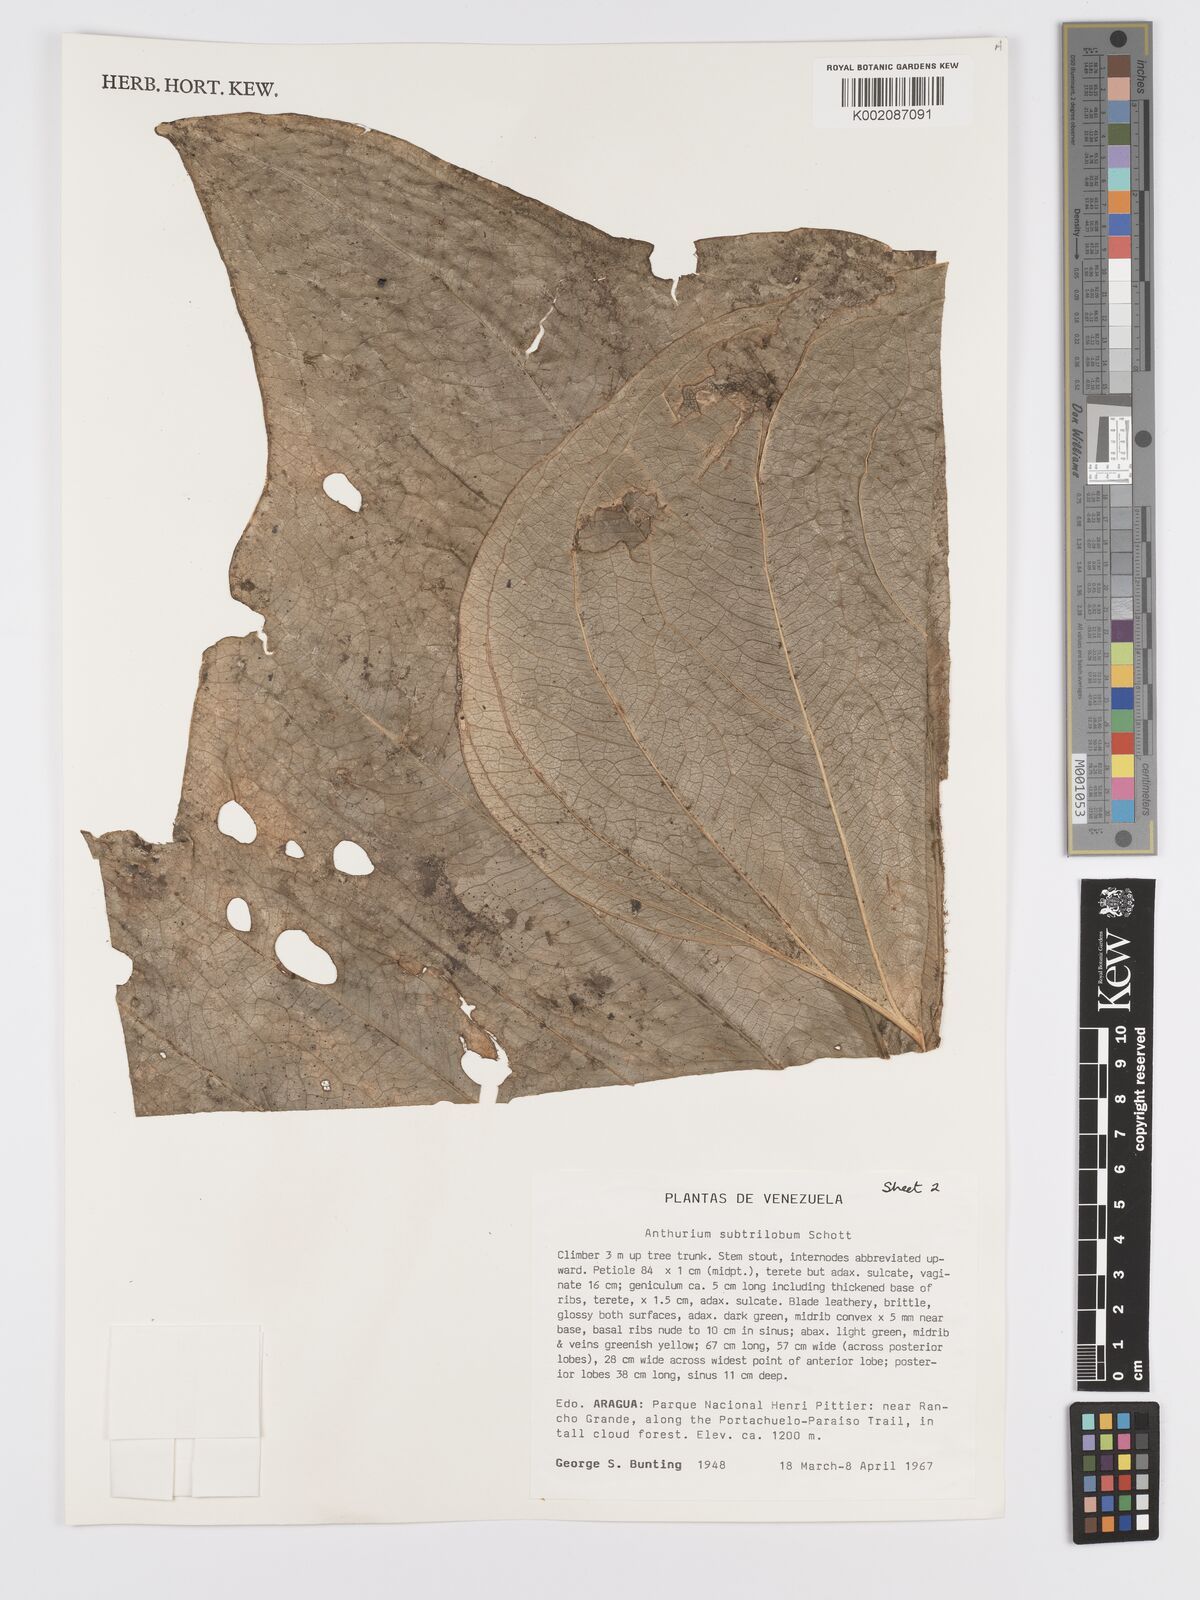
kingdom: Plantae
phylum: Tracheophyta
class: Liliopsida
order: Alismatales
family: Araceae
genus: Anthurium
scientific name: Anthurium subtrilobum
